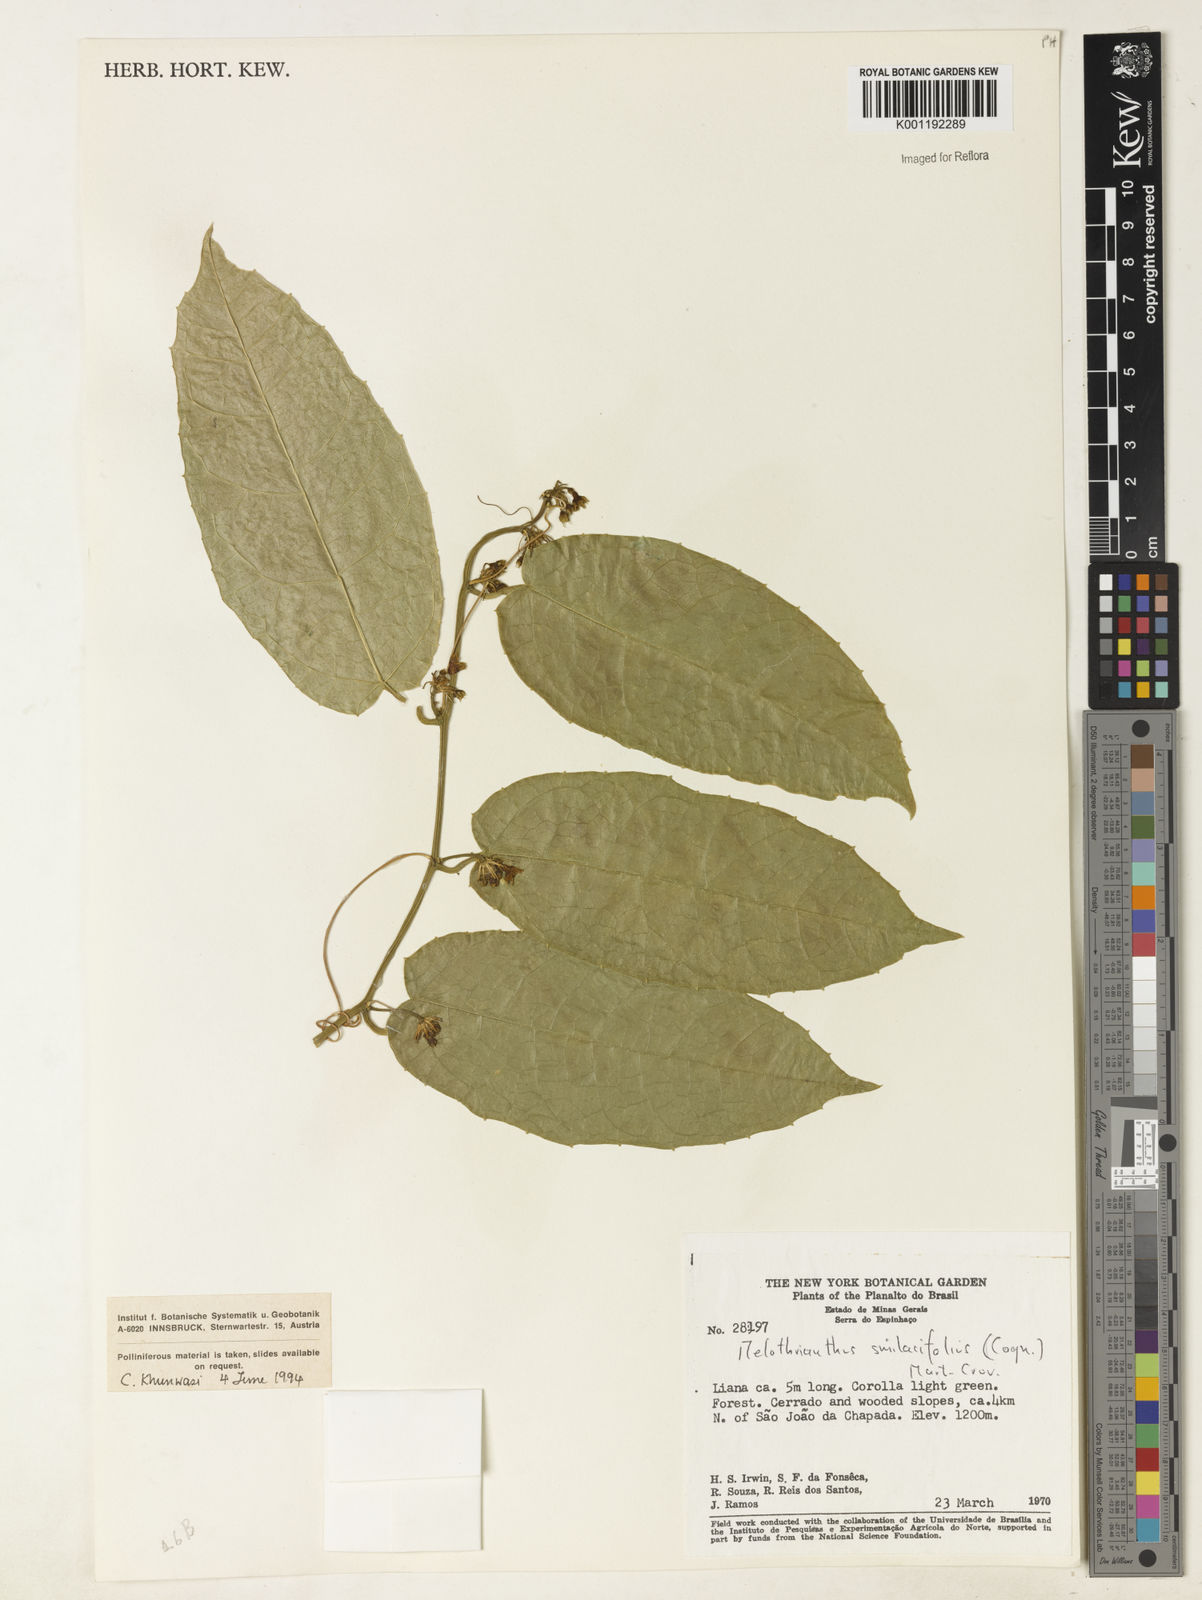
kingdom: Plantae
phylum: Tracheophyta
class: Magnoliopsida
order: Cucurbitales
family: Cucurbitaceae
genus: Apodanthera
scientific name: Apodanthera smilacifolia
